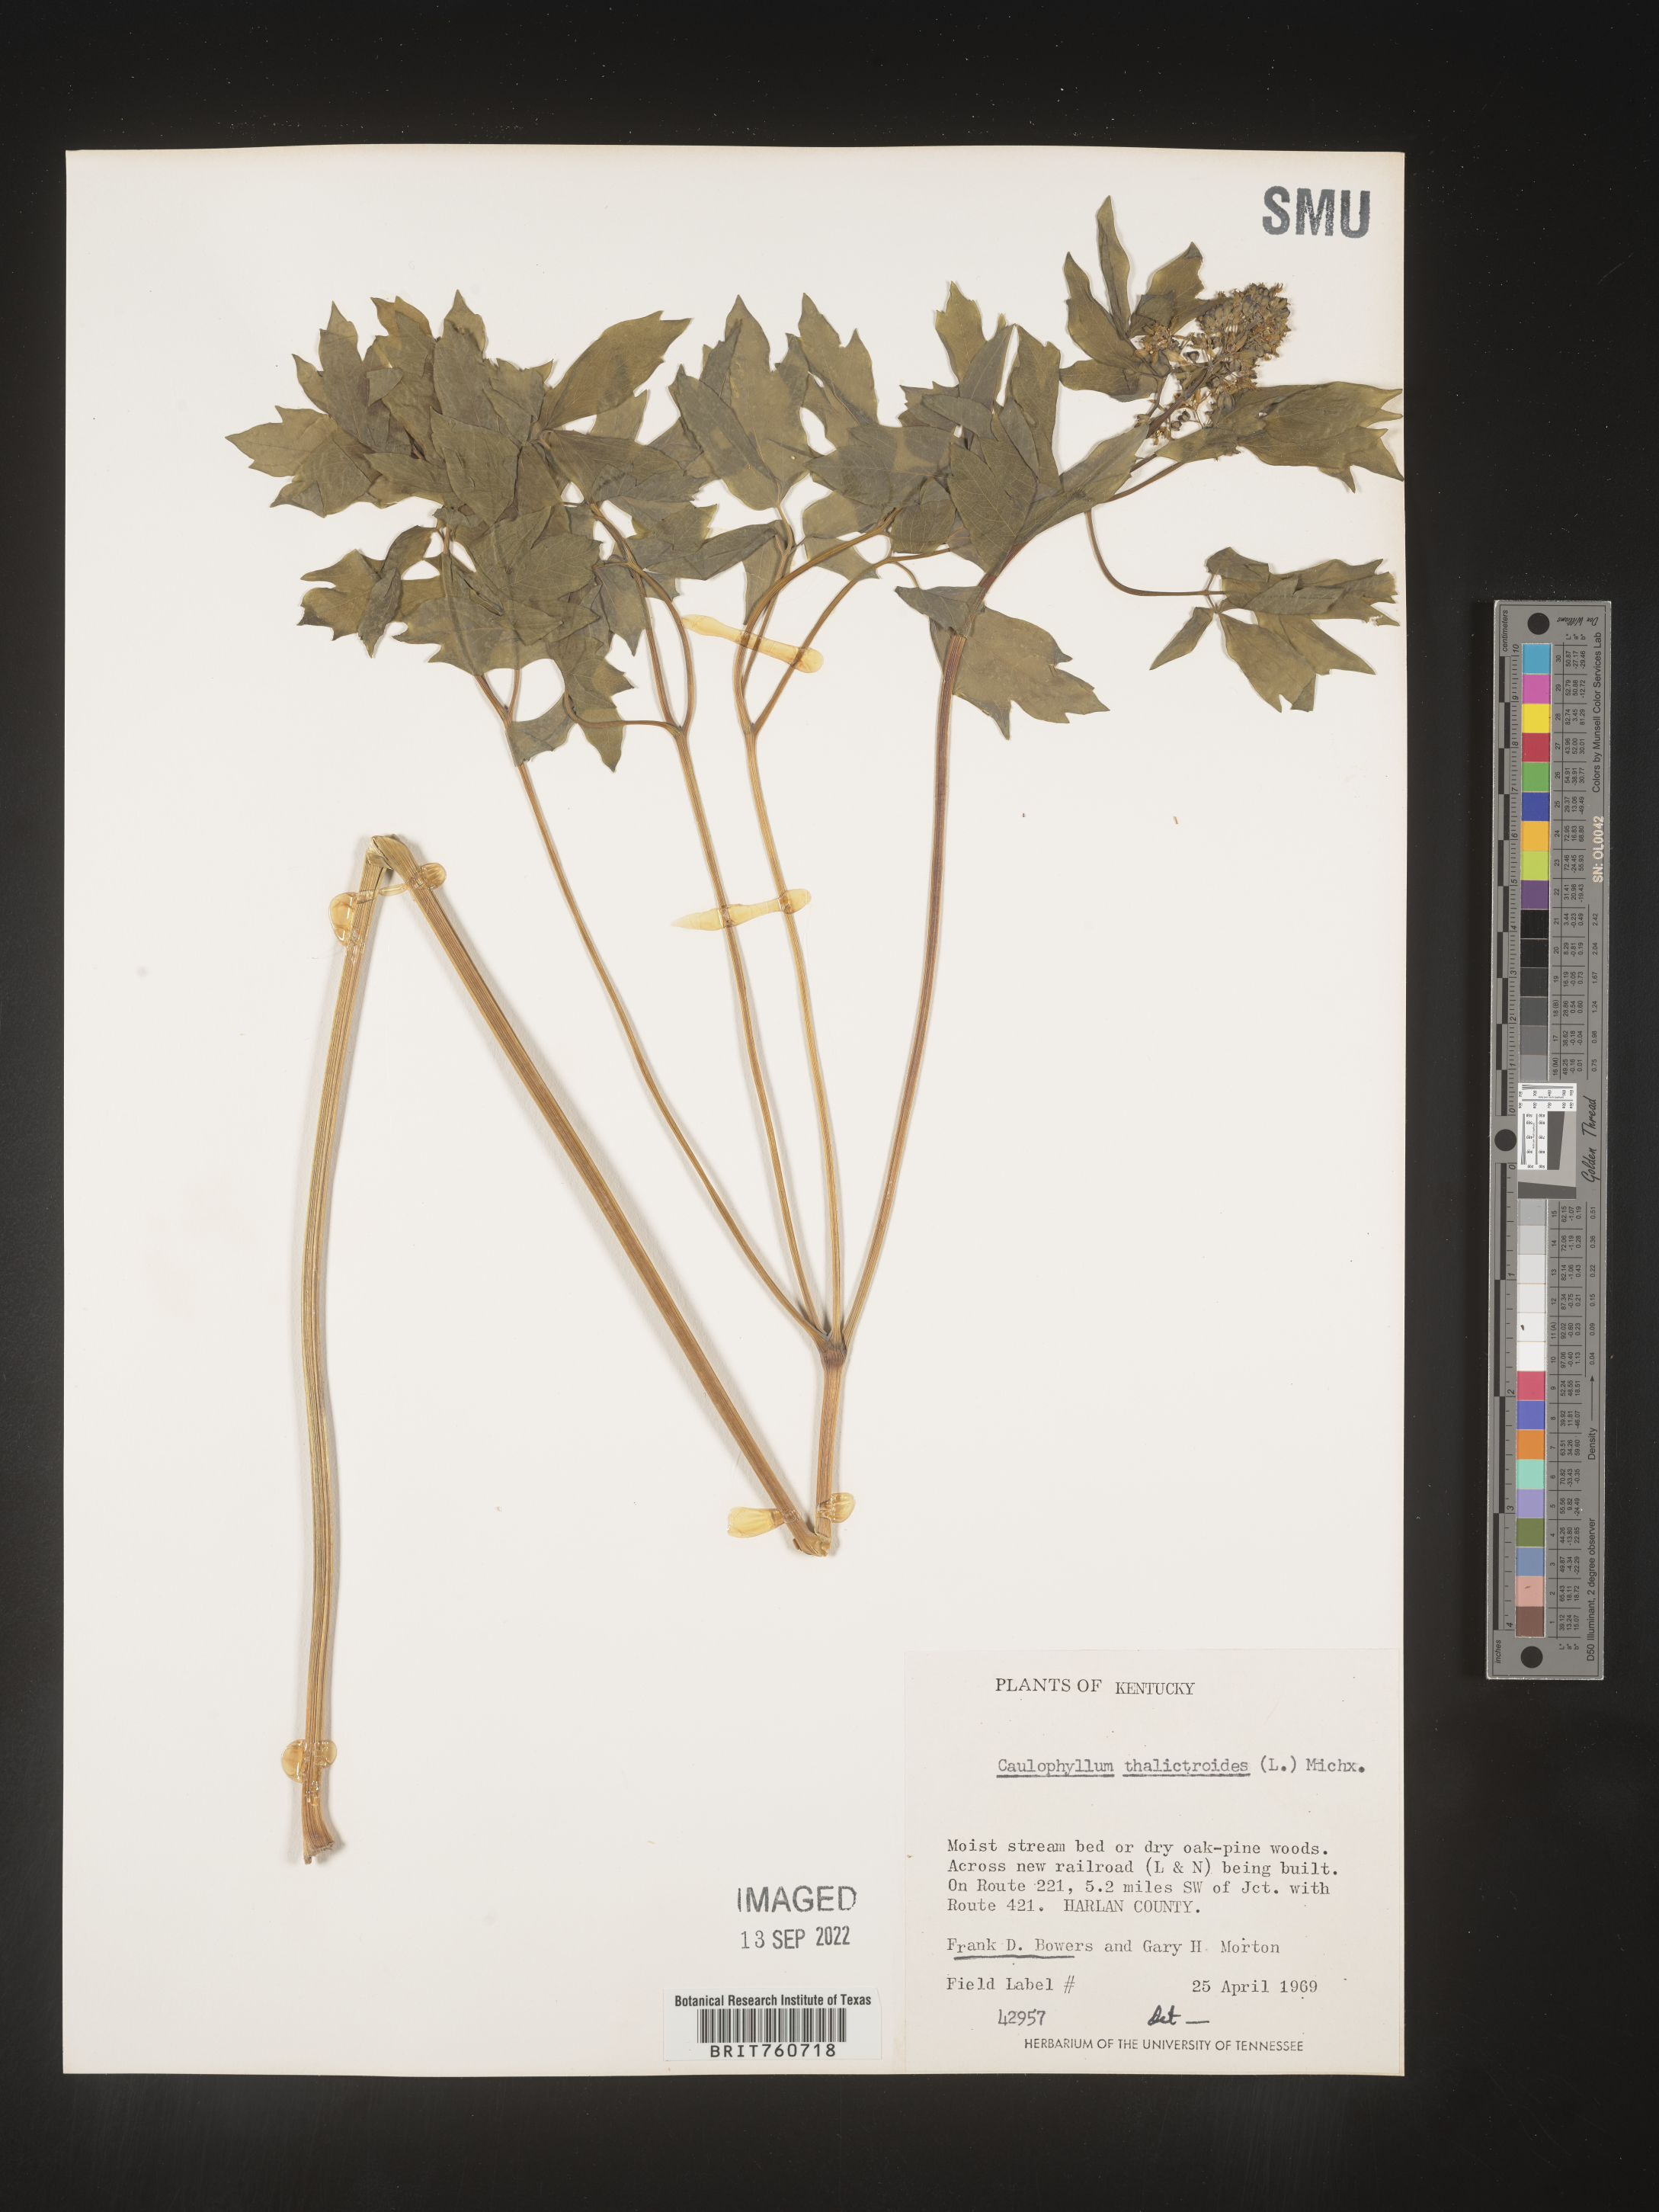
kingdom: Plantae
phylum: Tracheophyta
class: Magnoliopsida
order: Ranunculales
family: Berberidaceae
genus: Caulophyllum
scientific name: Caulophyllum thalictroides
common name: Blue cohosh
